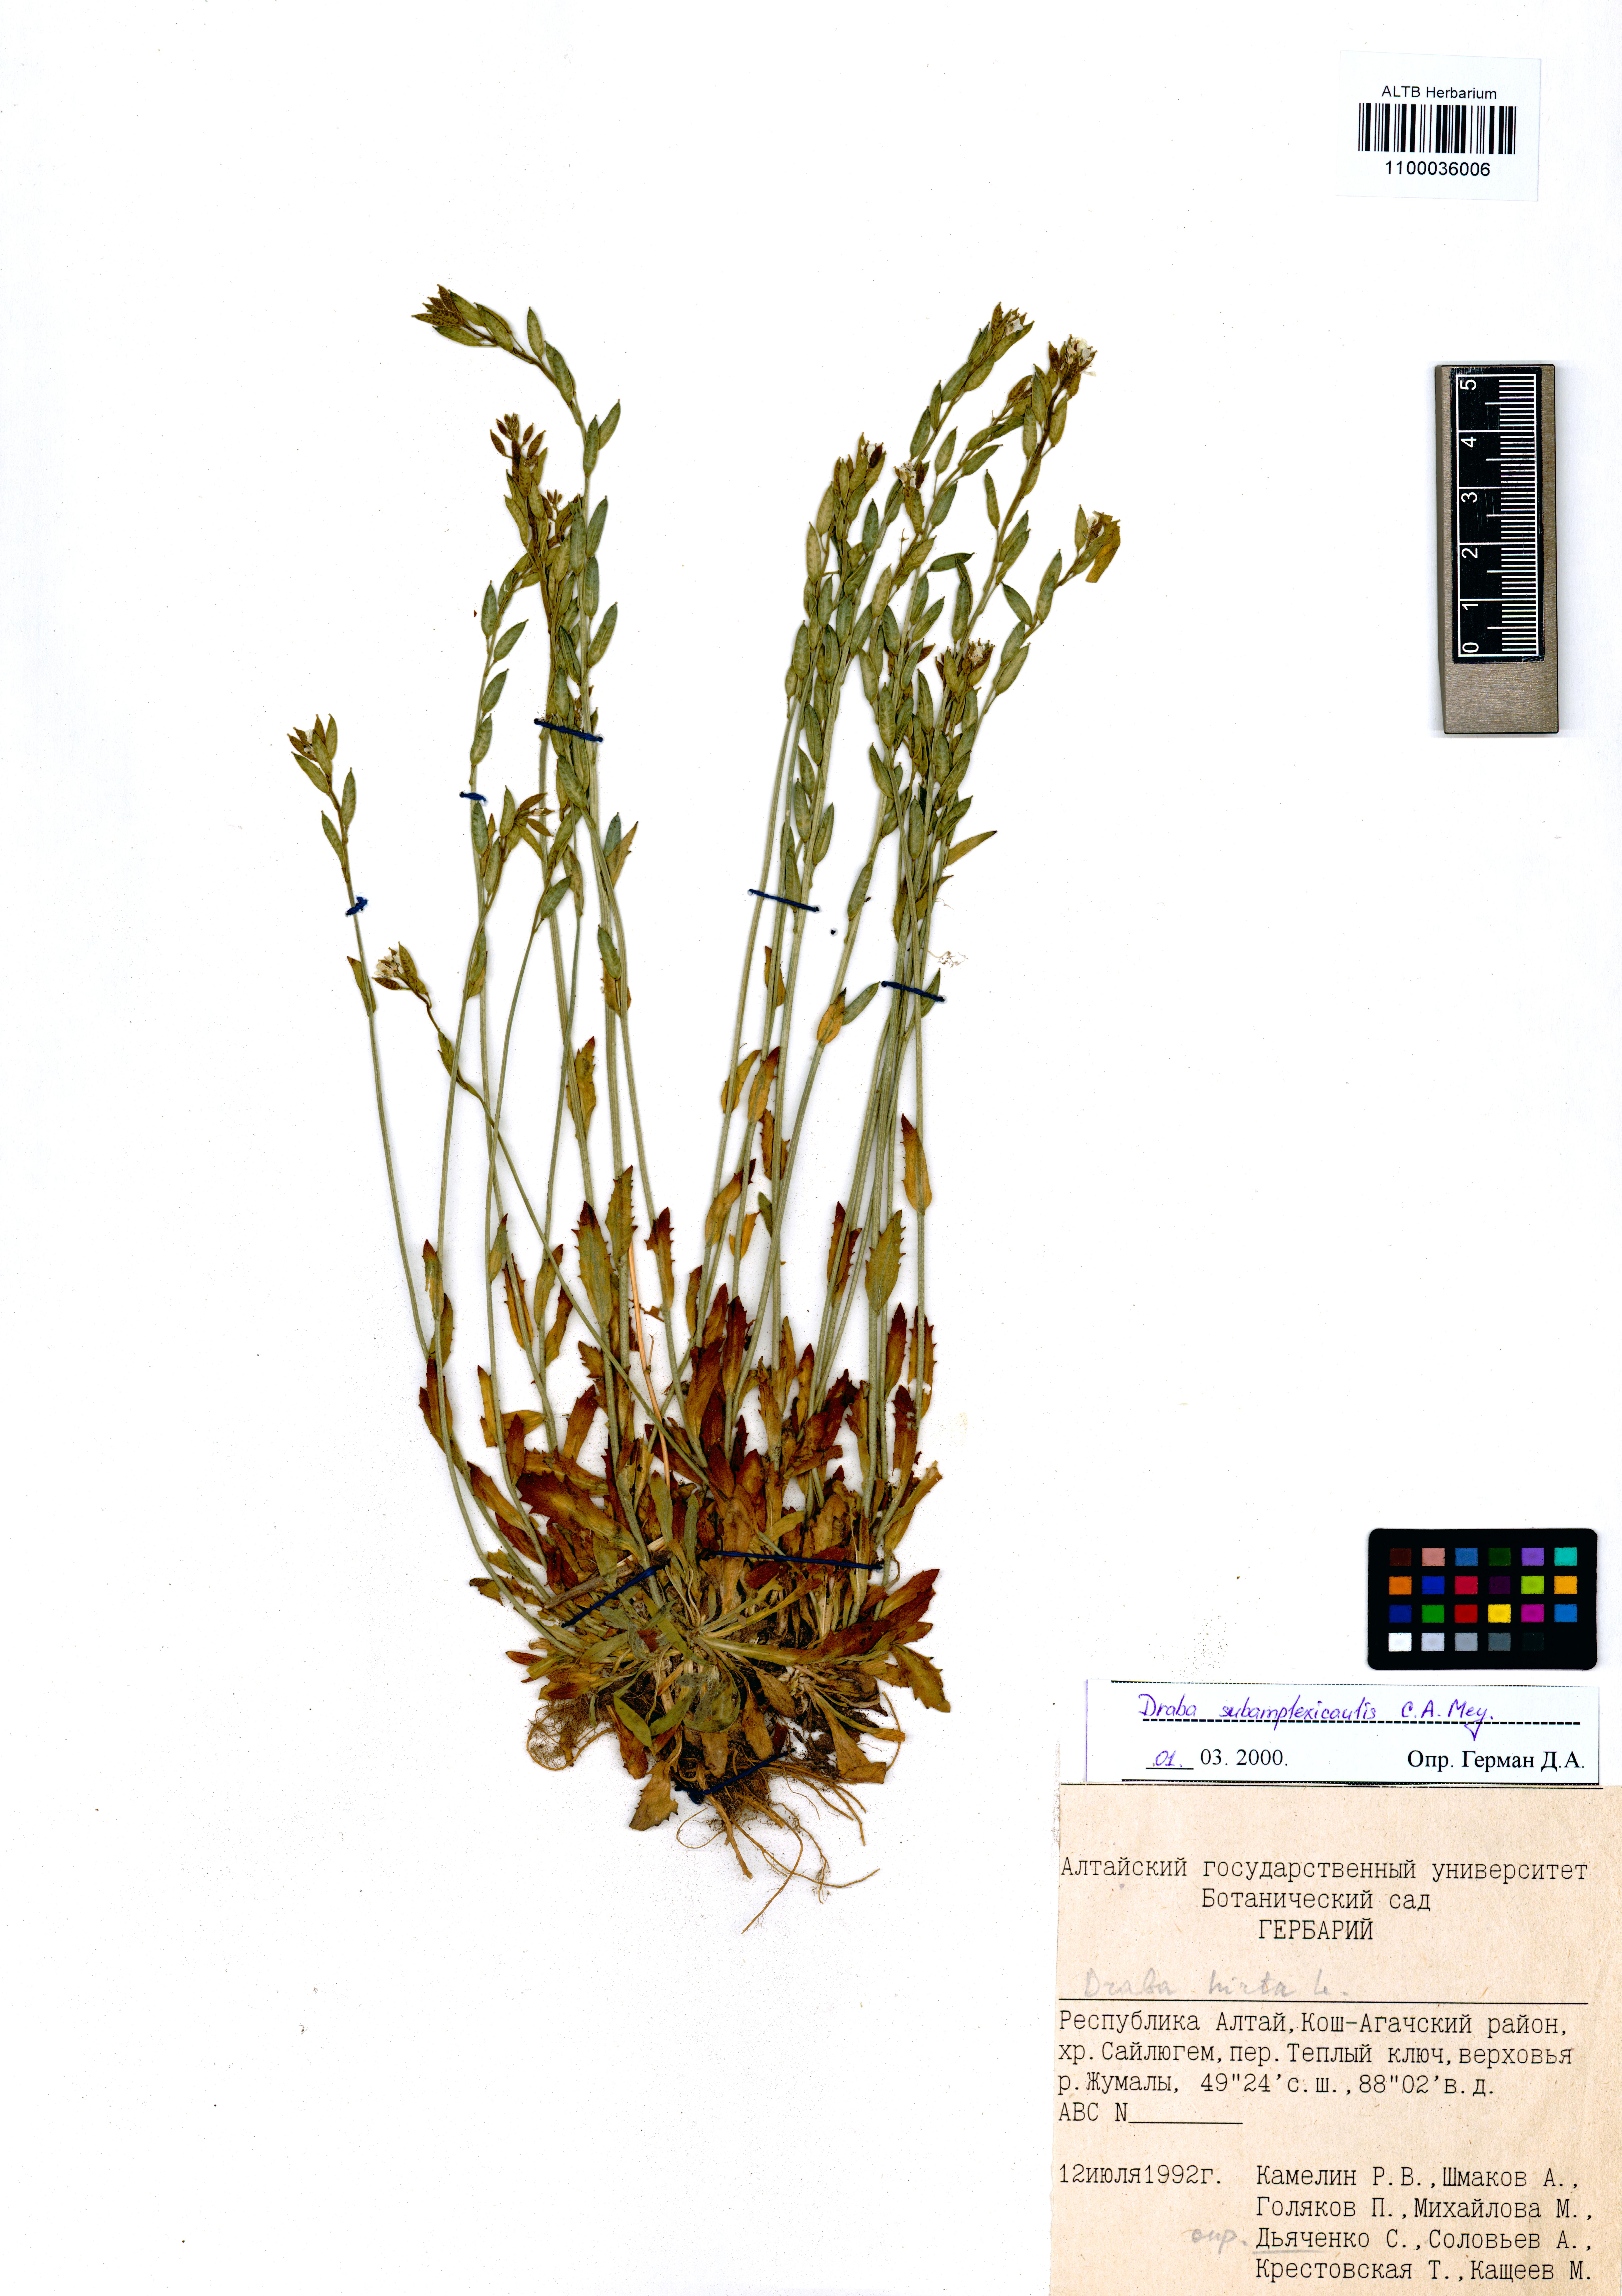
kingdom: Plantae
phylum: Tracheophyta
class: Magnoliopsida
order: Brassicales
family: Brassicaceae
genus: Draba
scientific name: Draba subamplexicaulis
